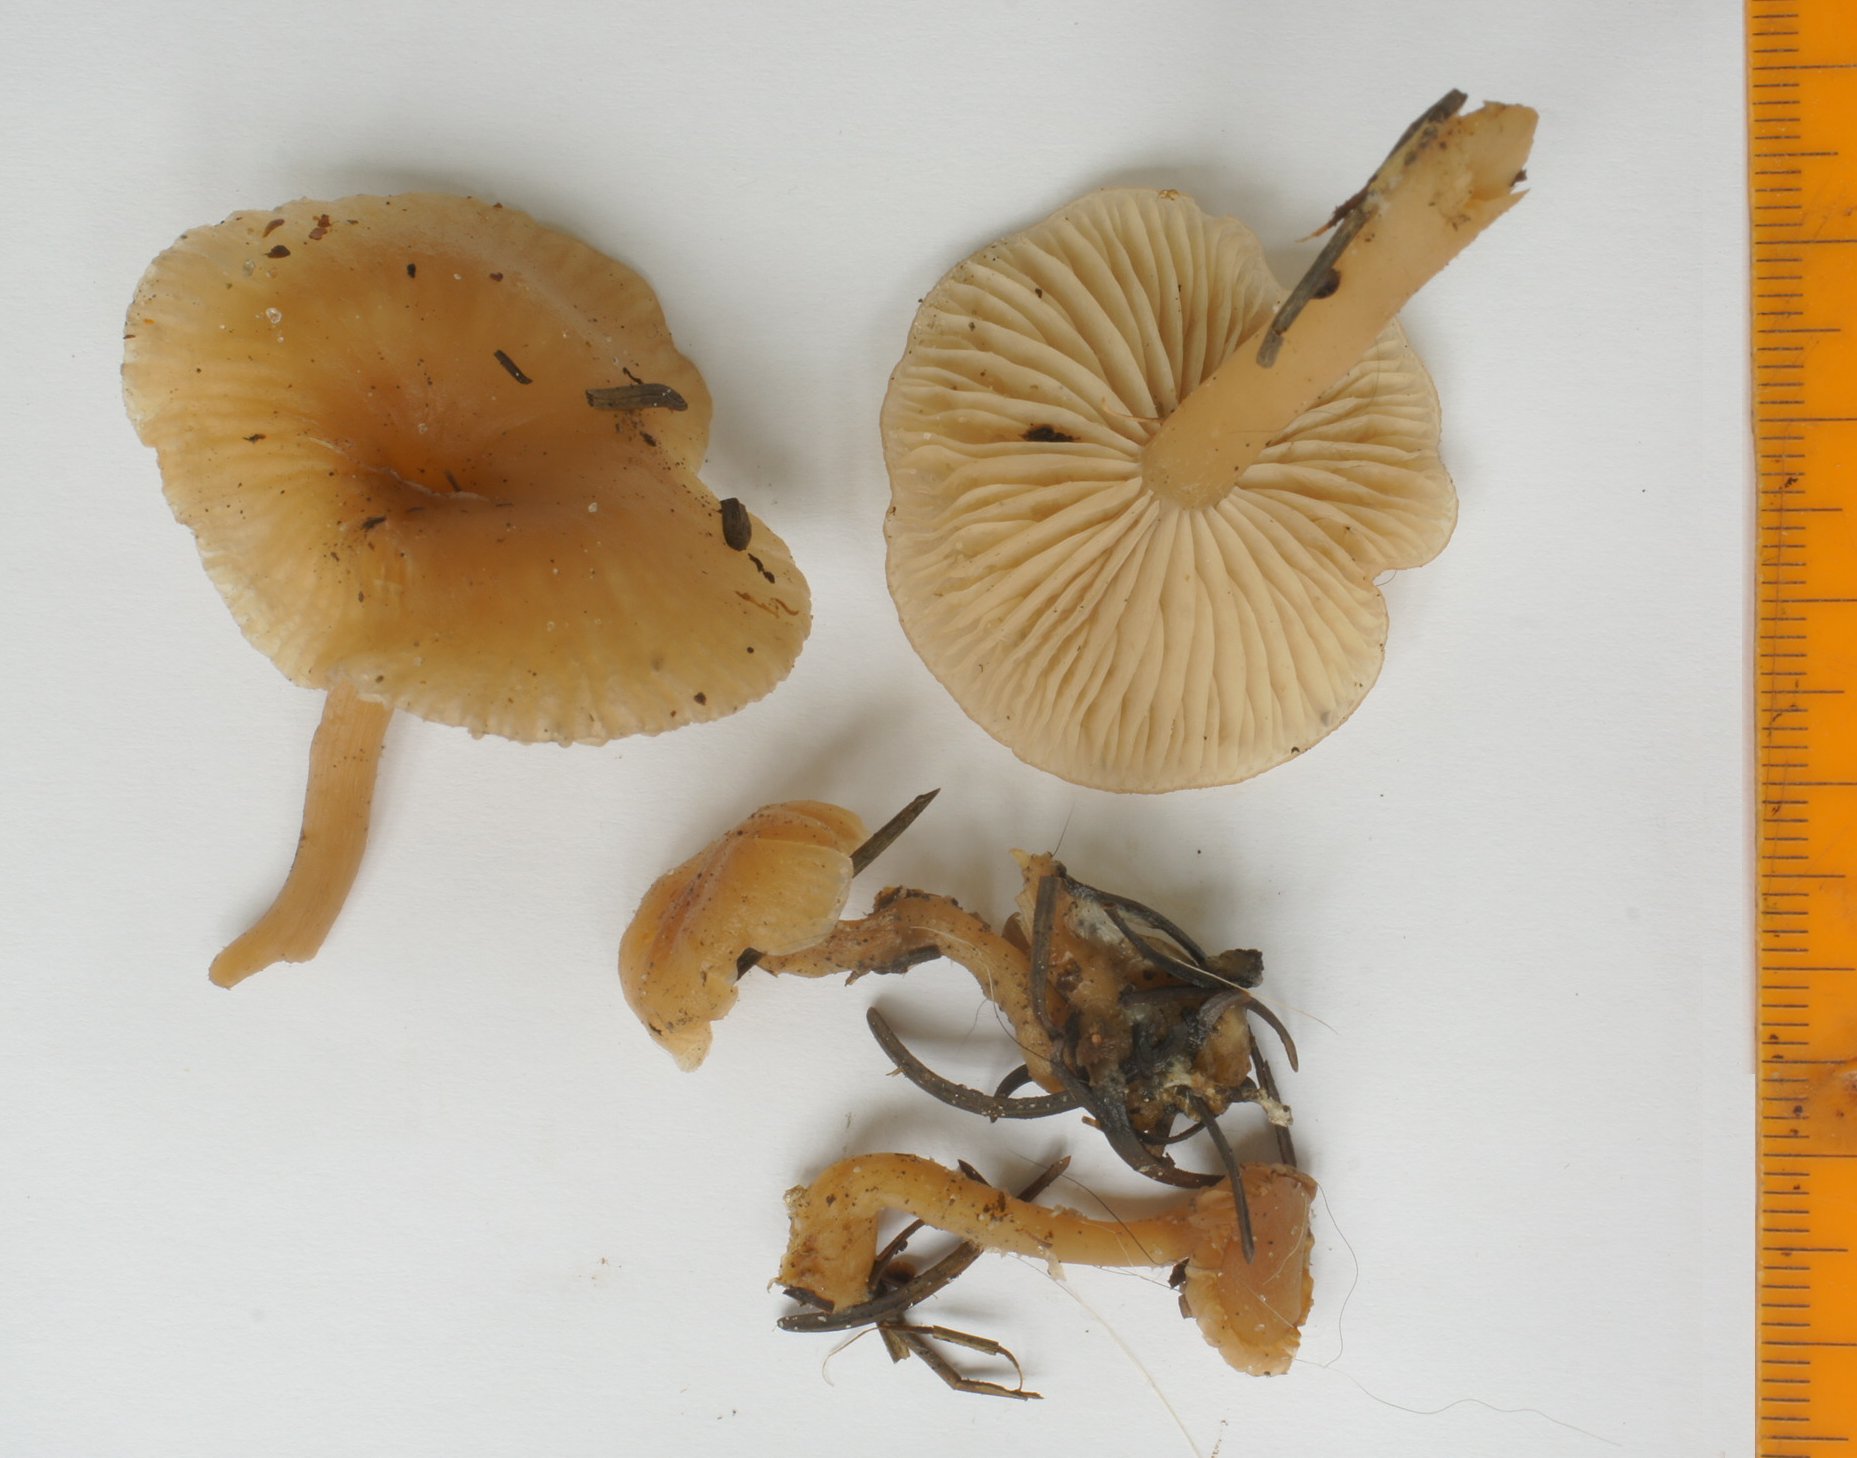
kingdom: Fungi
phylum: Basidiomycota
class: Agaricomycetes
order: Agaricales
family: Tricholomataceae
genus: Clitocybe
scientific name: Clitocybe fragrans
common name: vellugtende tragthat
